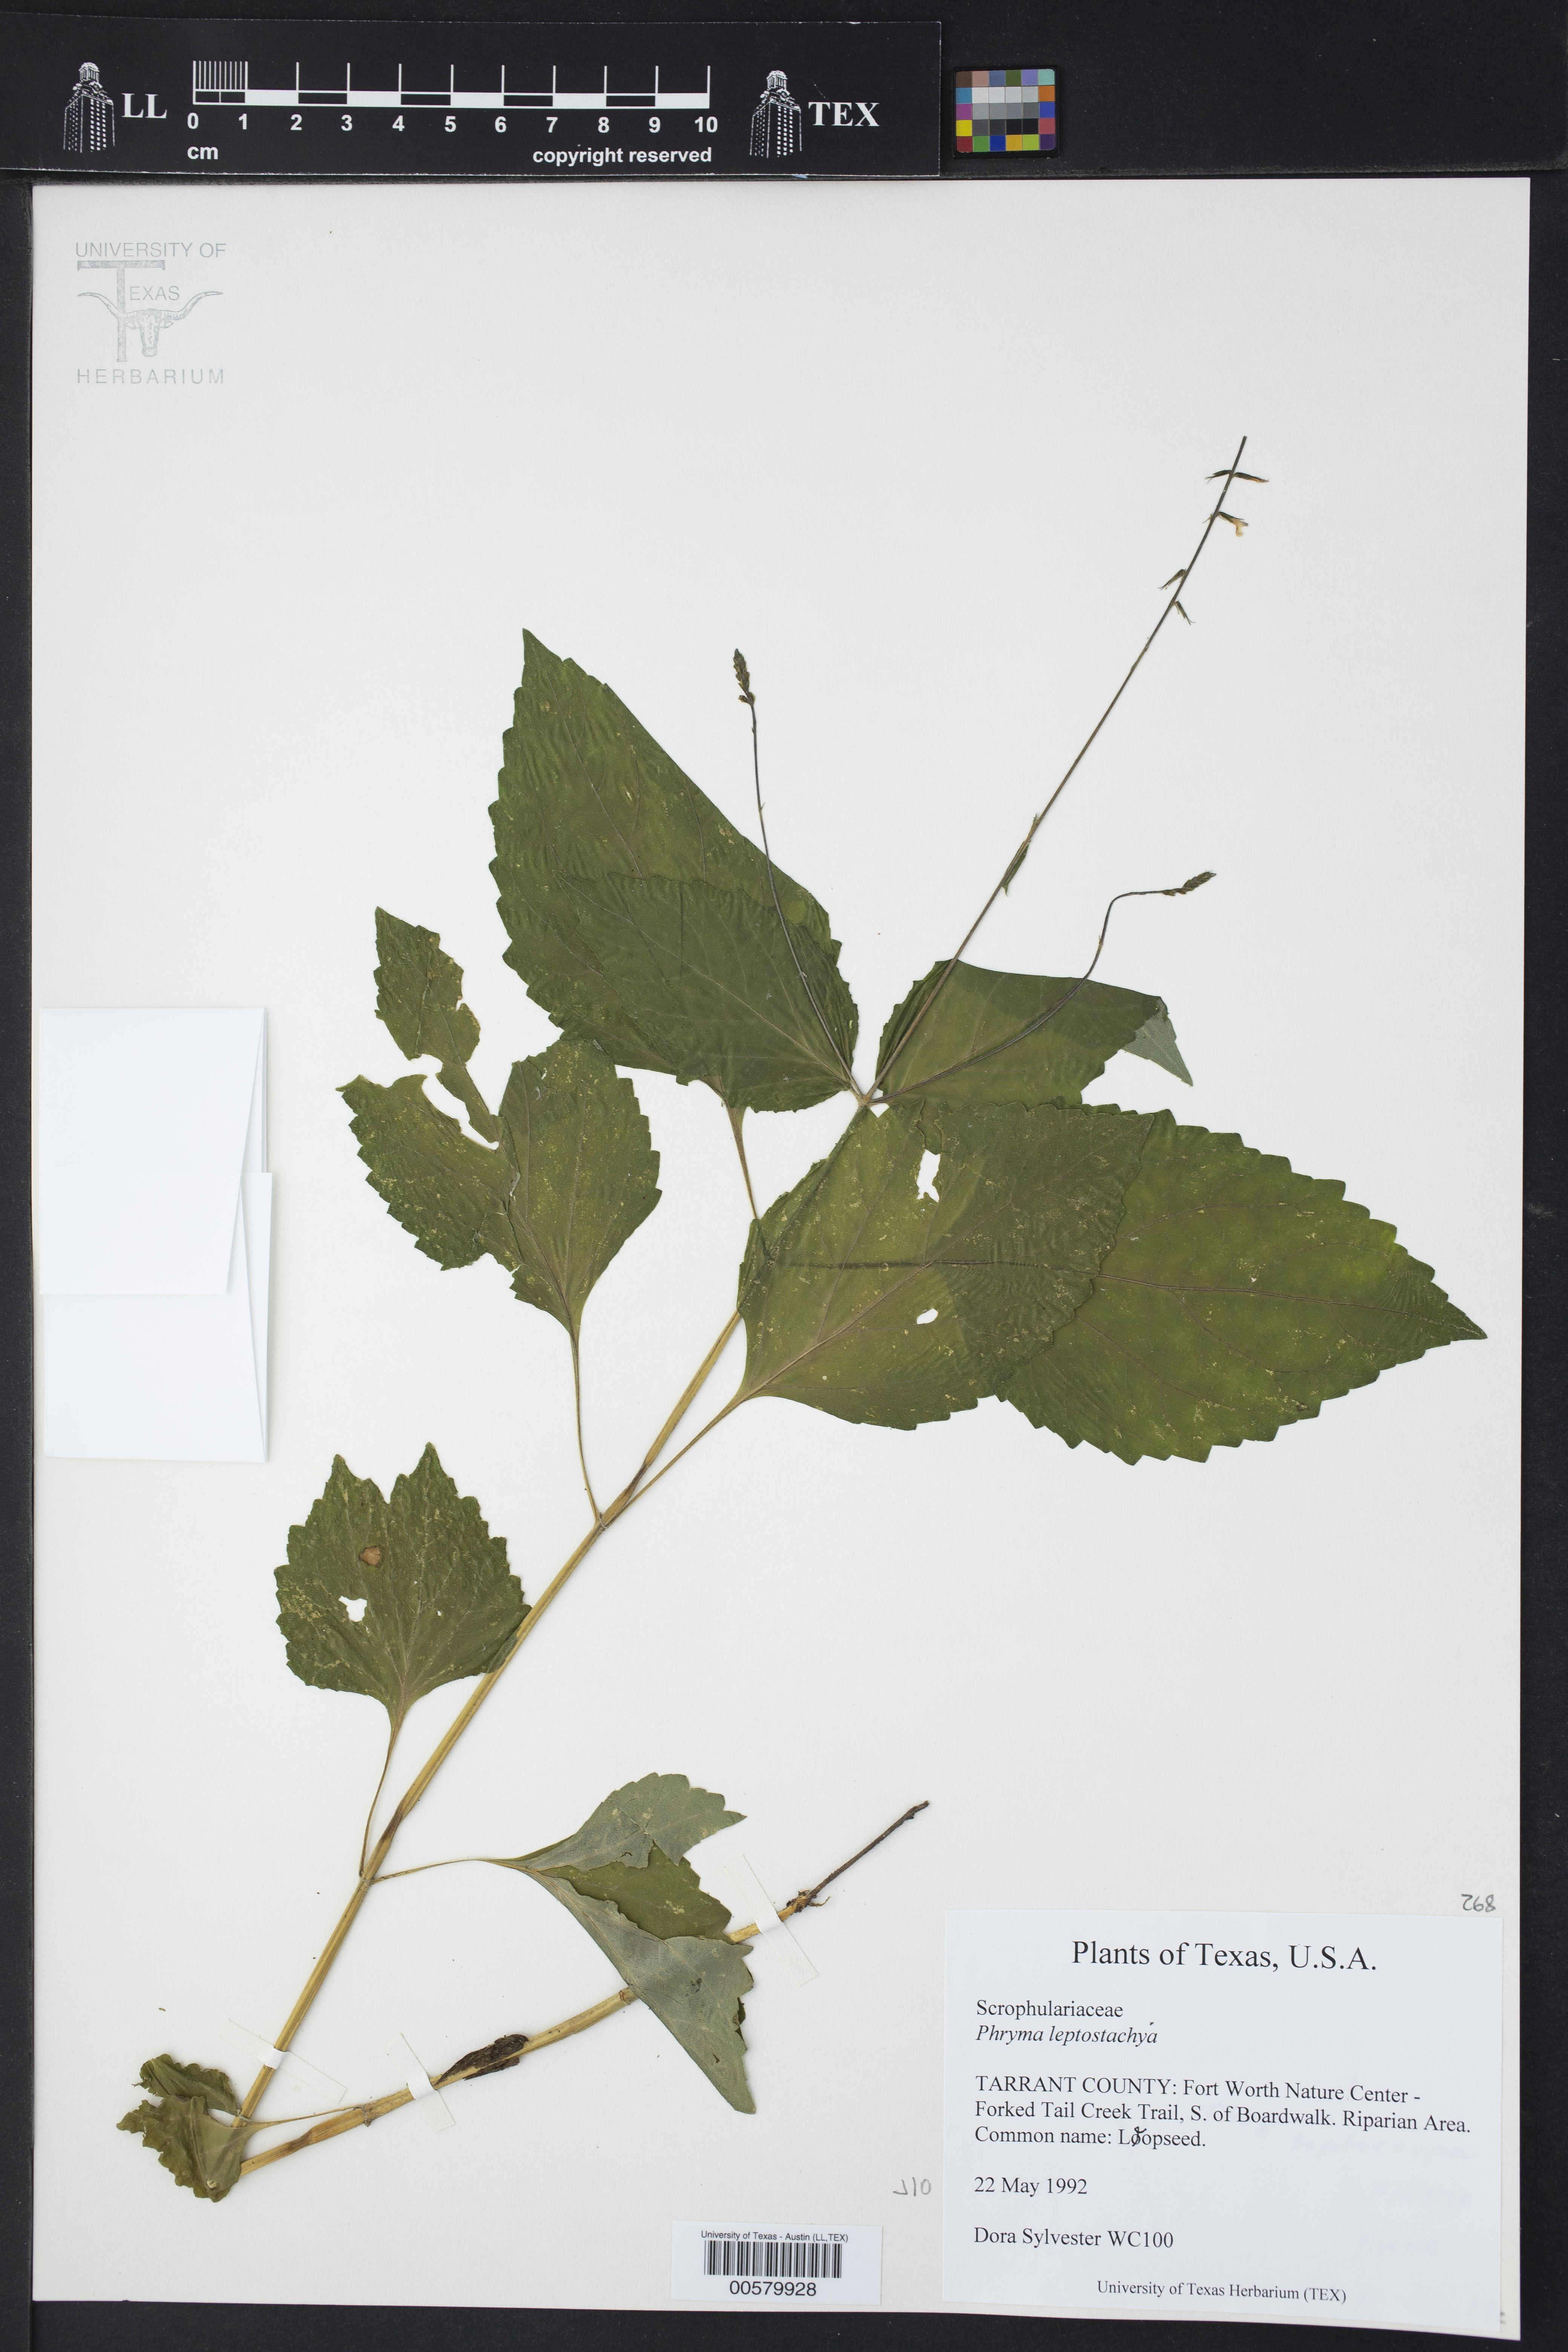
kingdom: Plantae
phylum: Tracheophyta
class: Magnoliopsida
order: Lamiales
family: Phrymaceae
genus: Phryma
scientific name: Phryma leptostachya
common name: American lopseed
